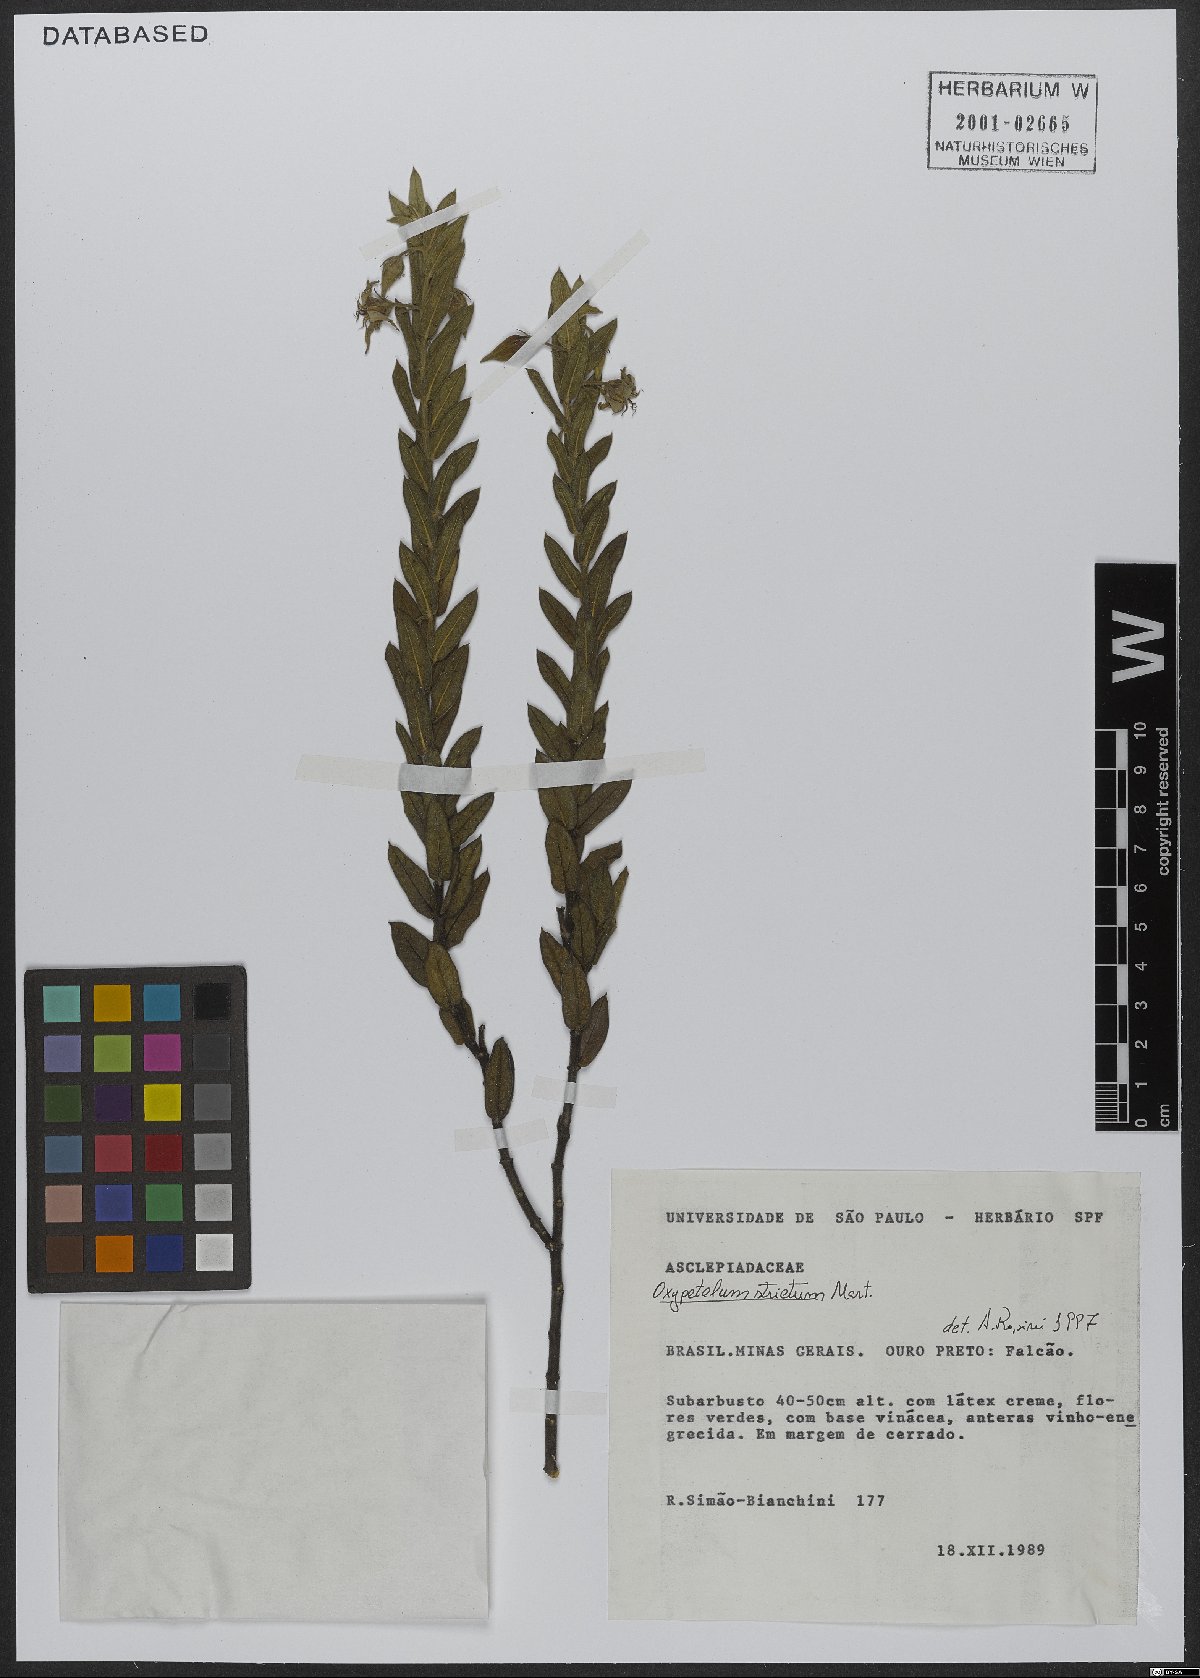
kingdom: Plantae
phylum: Tracheophyta
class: Magnoliopsida
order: Gentianales
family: Apocynaceae
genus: Oxypetalum
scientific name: Oxypetalum strictum
